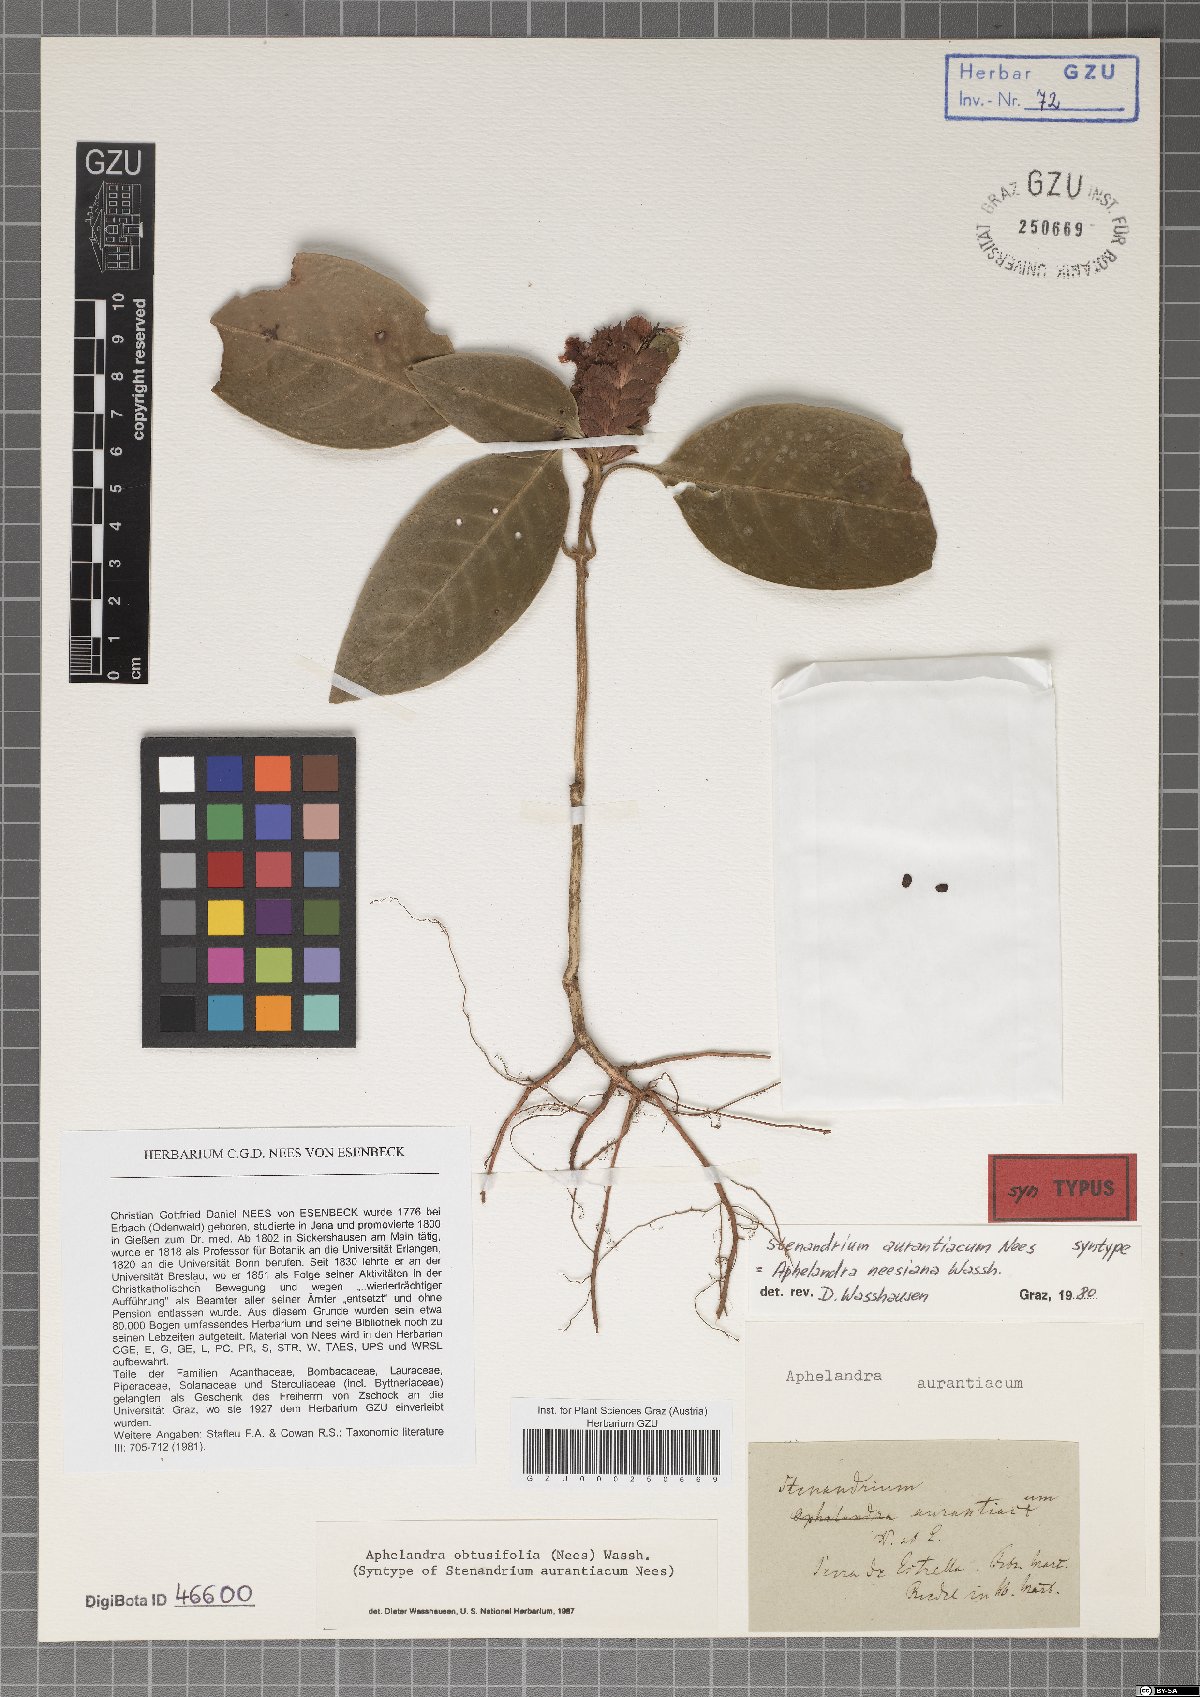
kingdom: Plantae
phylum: Tracheophyta
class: Magnoliopsida
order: Lamiales
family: Acanthaceae
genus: Aphelandra
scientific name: Aphelandra neesiana
